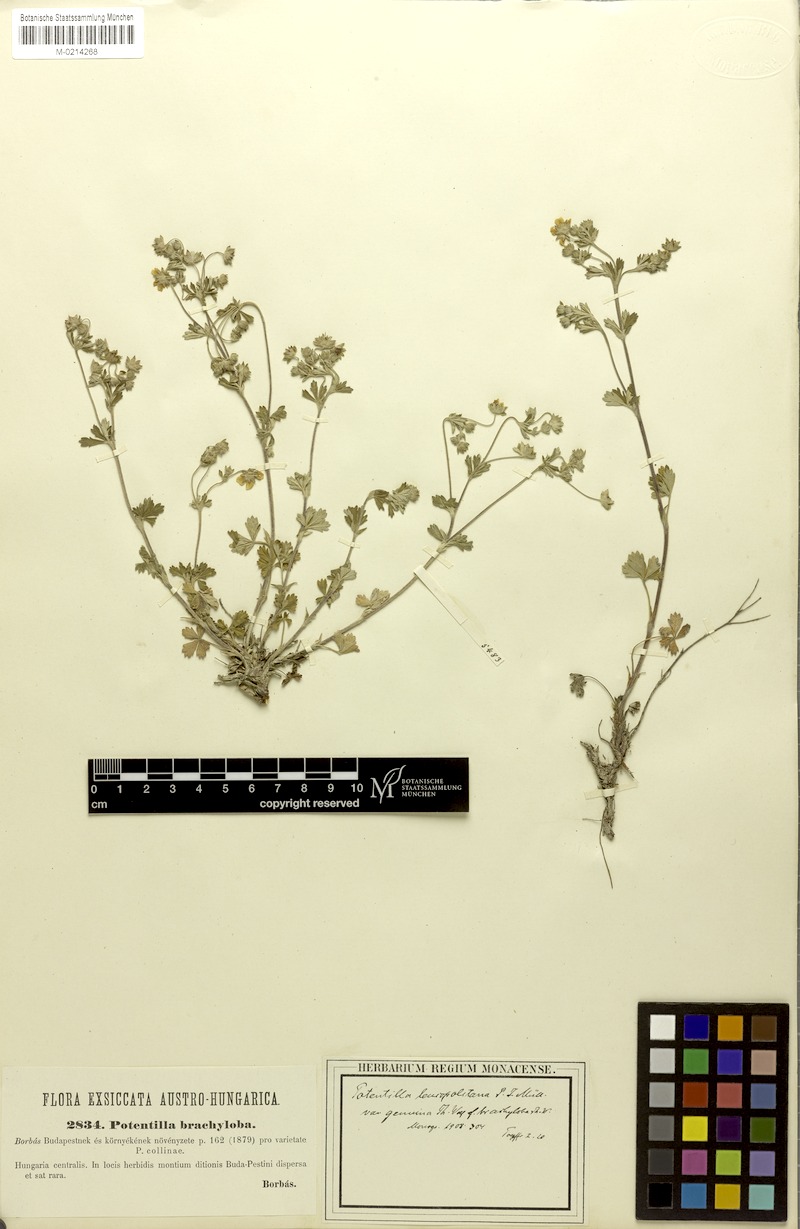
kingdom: Plantae
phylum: Tracheophyta
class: Magnoliopsida
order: Rosales
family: Rosaceae
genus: Potentilla
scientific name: Potentilla collina
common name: Palmleaf cinquefoil
